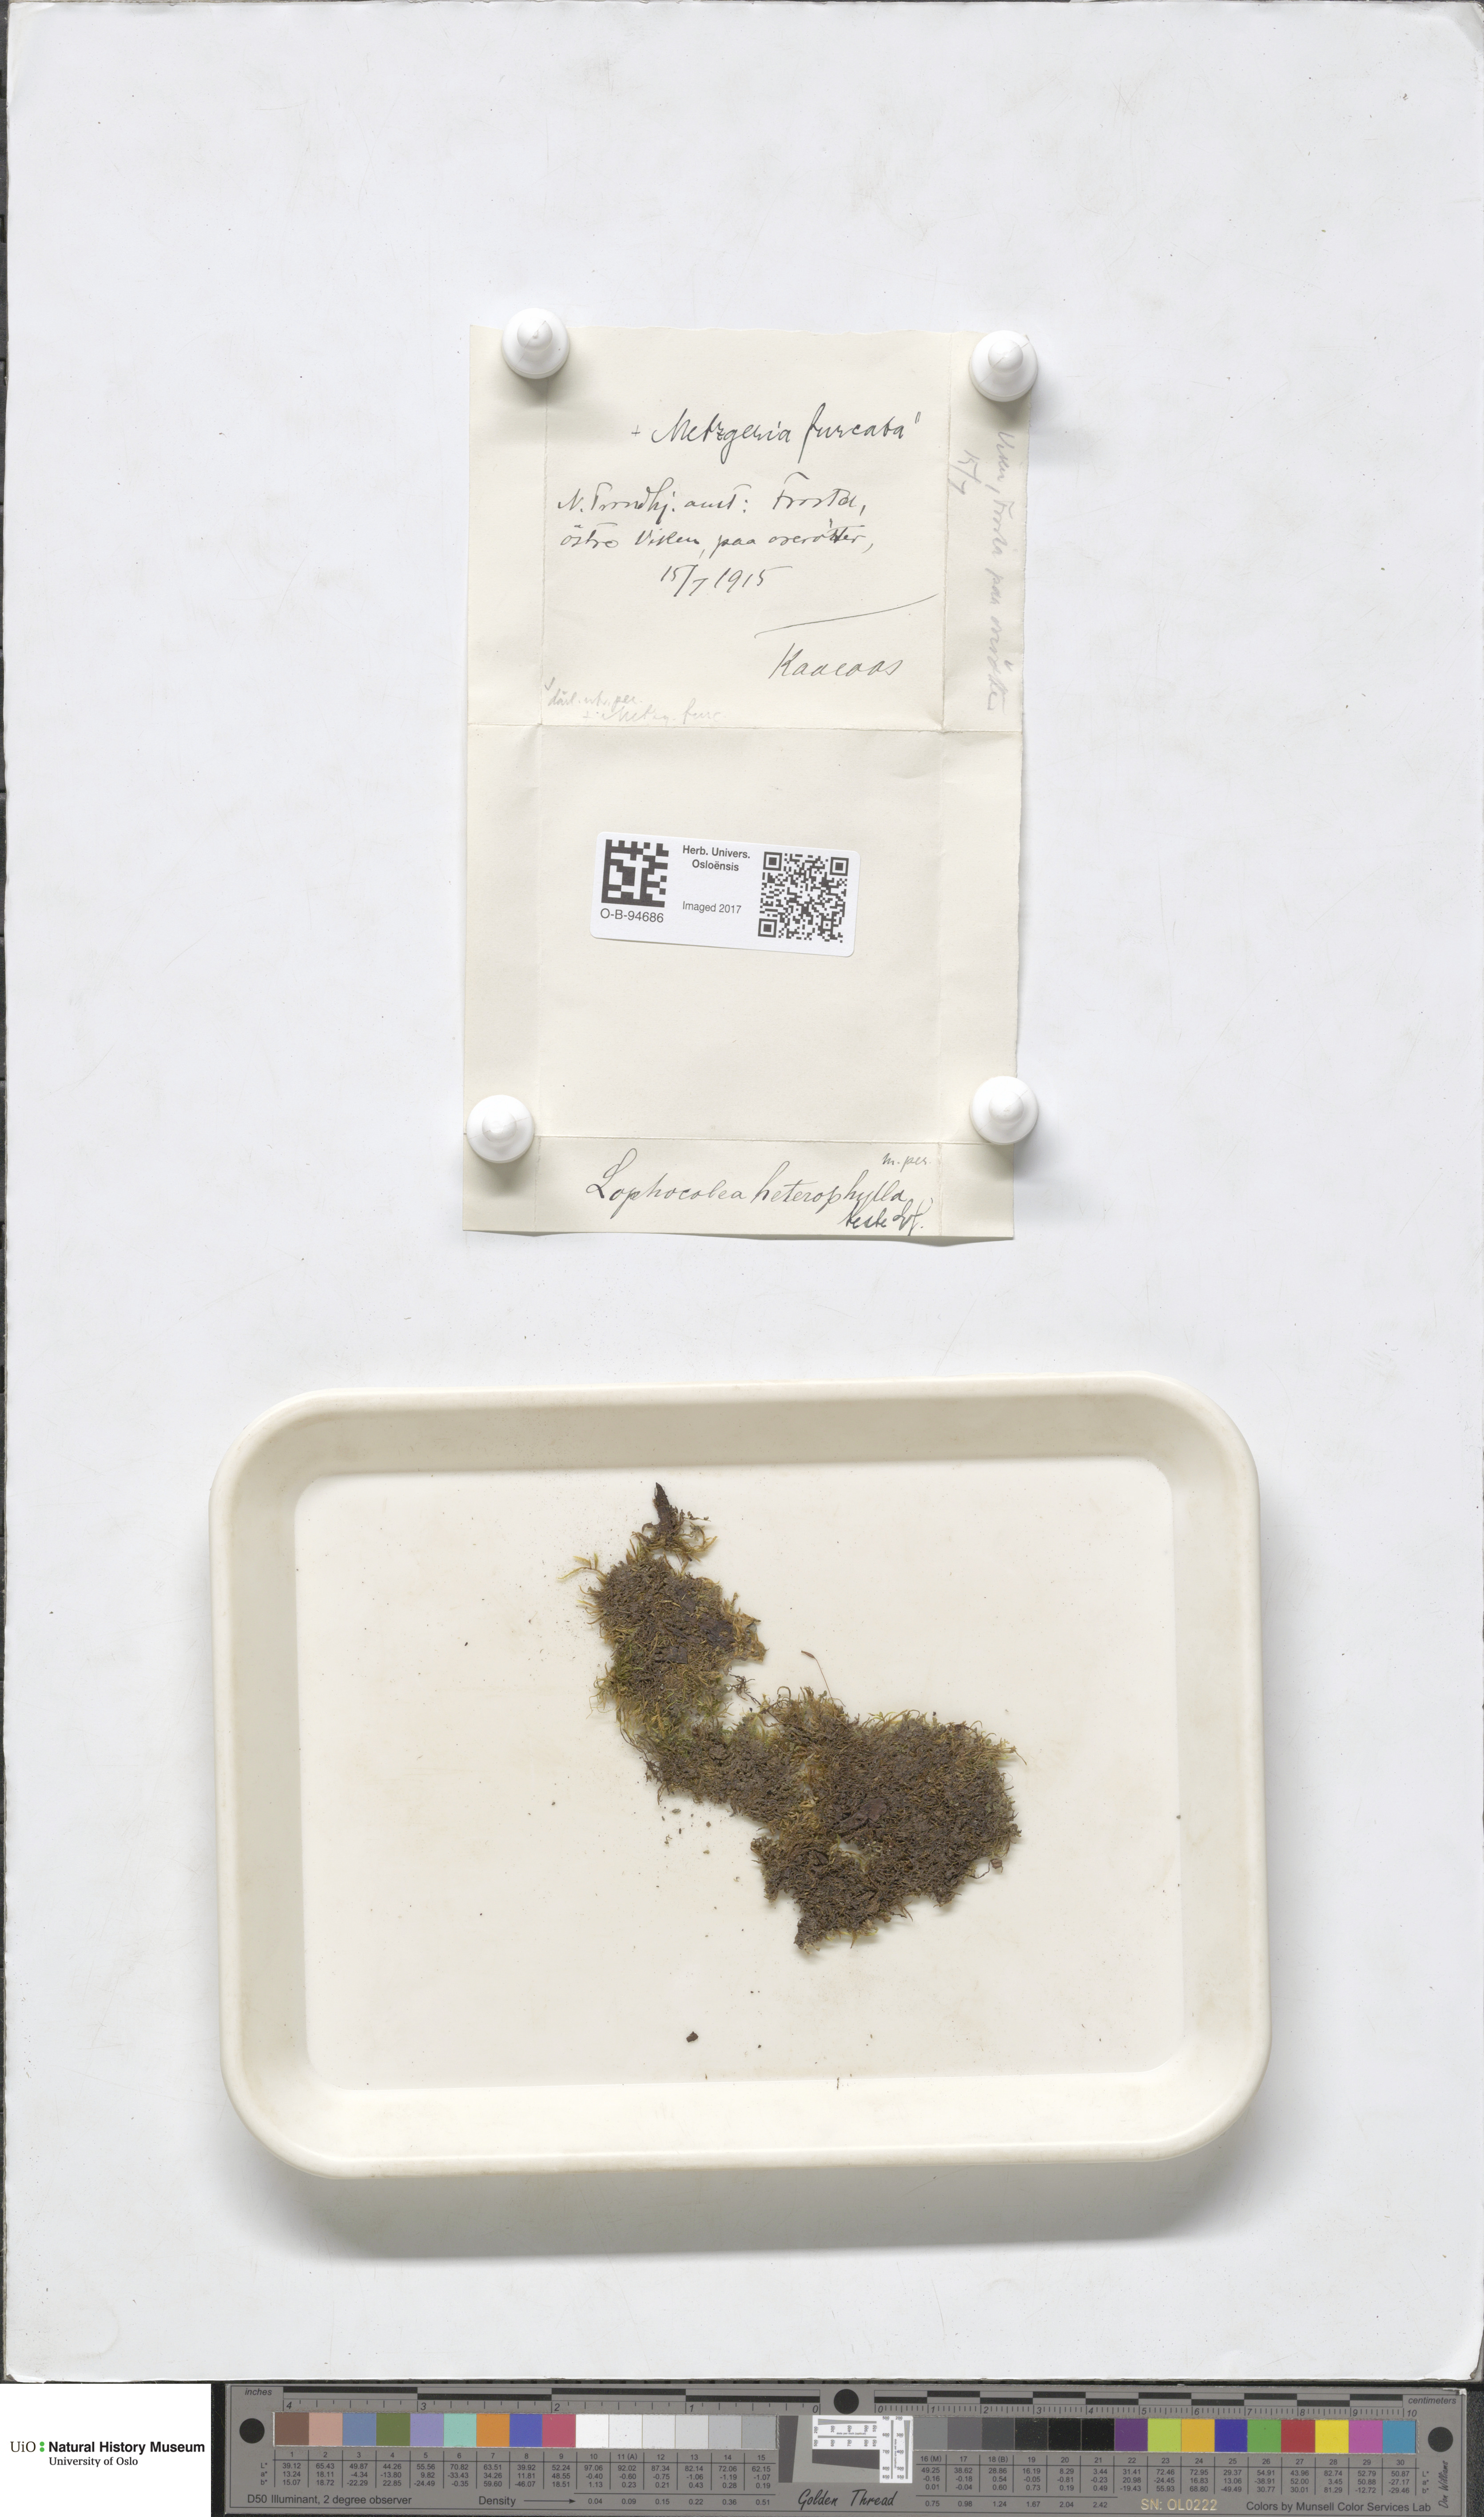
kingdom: Plantae
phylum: Marchantiophyta
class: Jungermanniopsida
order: Metzgeriales
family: Metzgeriaceae
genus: Metzgeria
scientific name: Metzgeria furcata
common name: Forked veilwort
